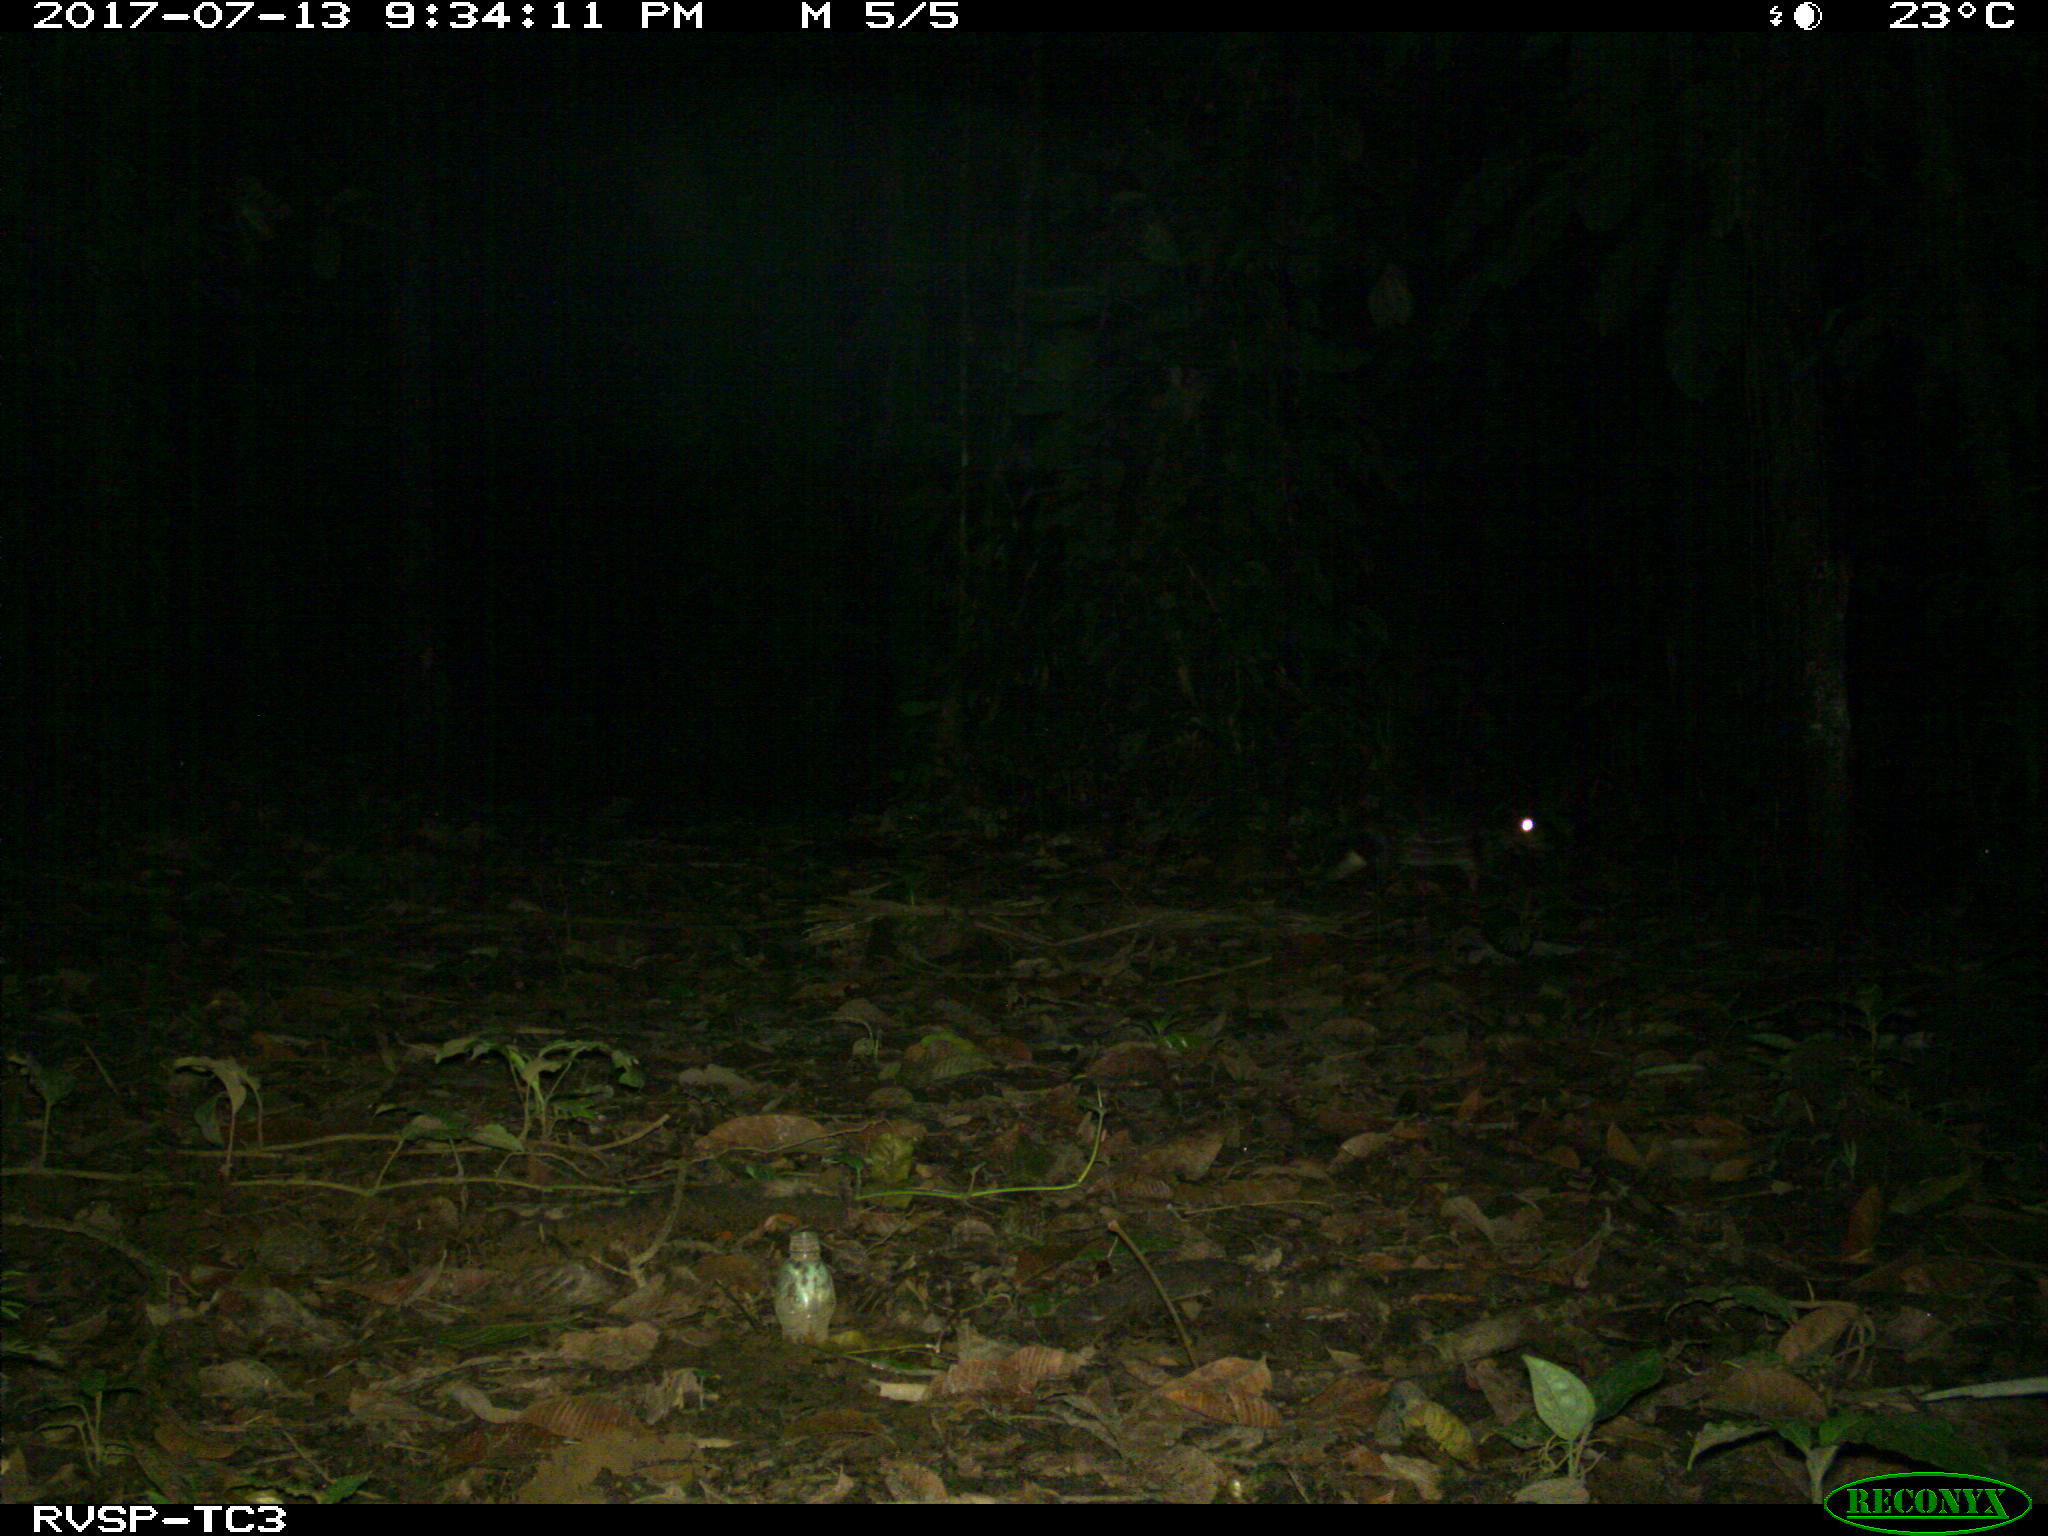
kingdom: Animalia
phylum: Chordata
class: Mammalia
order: Rodentia
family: Cuniculidae
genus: Cuniculus
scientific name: Cuniculus paca
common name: Lowland paca
